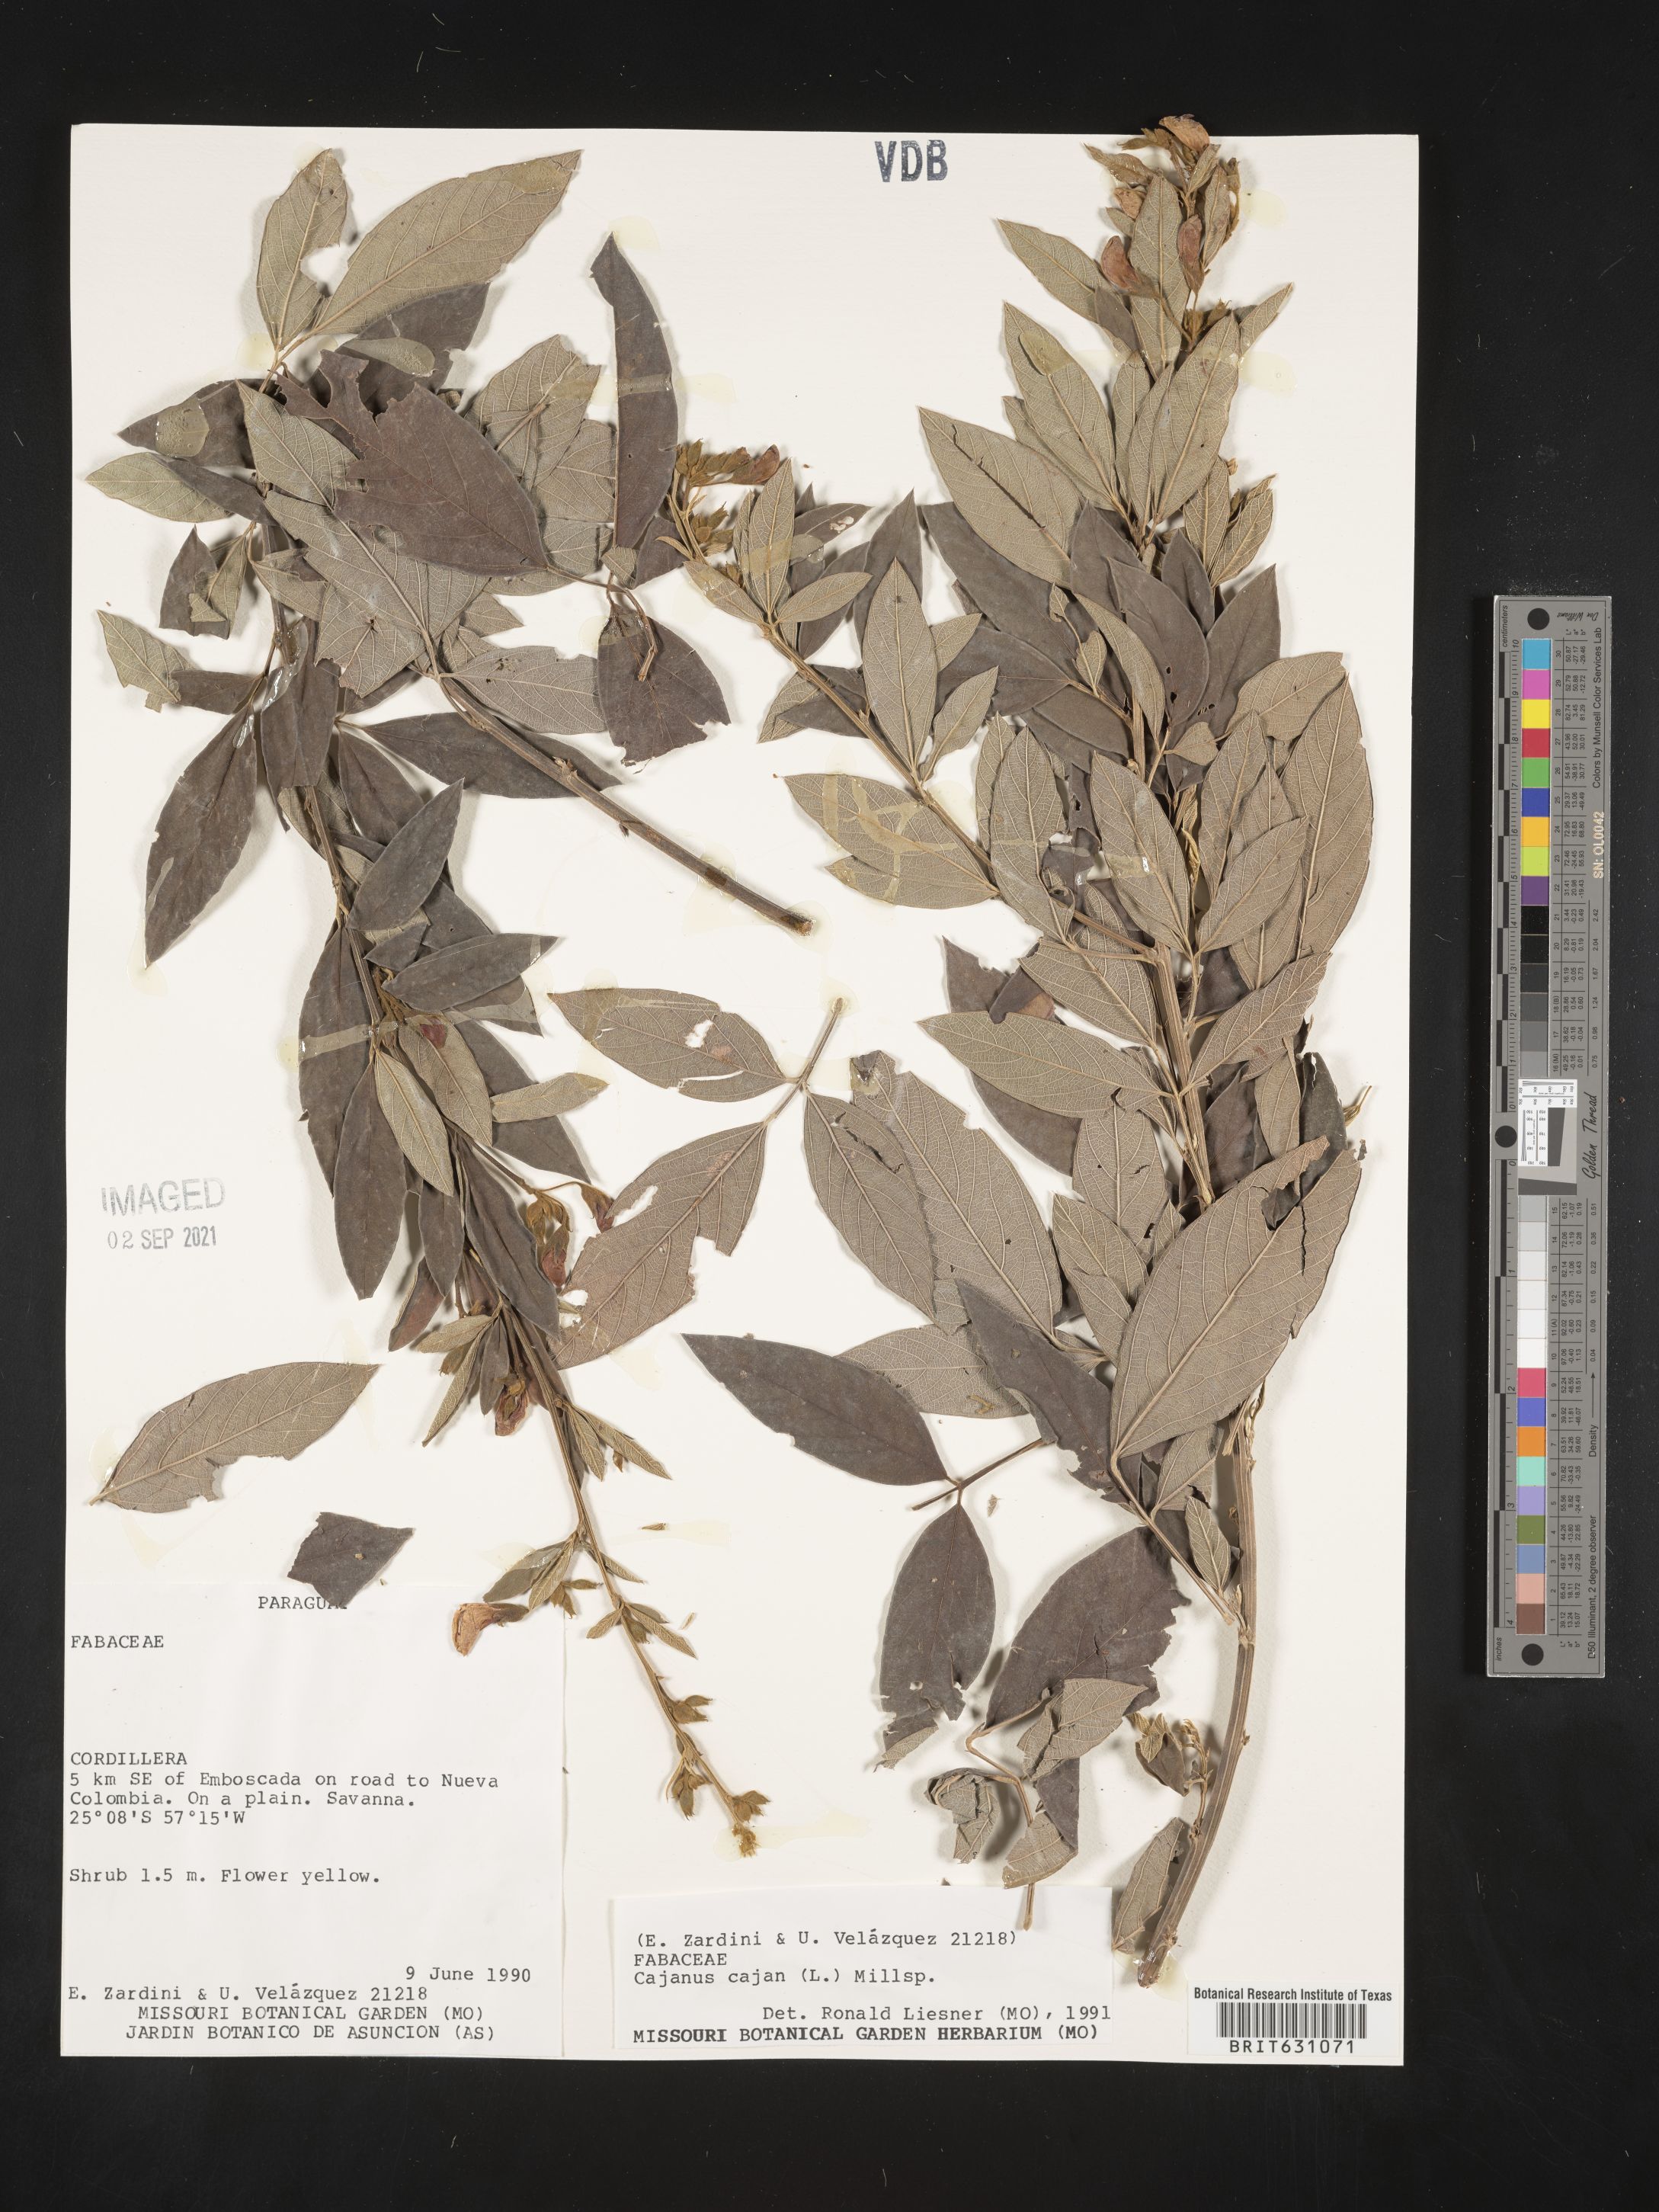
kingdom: Plantae
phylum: Tracheophyta
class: Magnoliopsida
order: Fabales
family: Fabaceae
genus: Cajanus
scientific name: Cajanus
